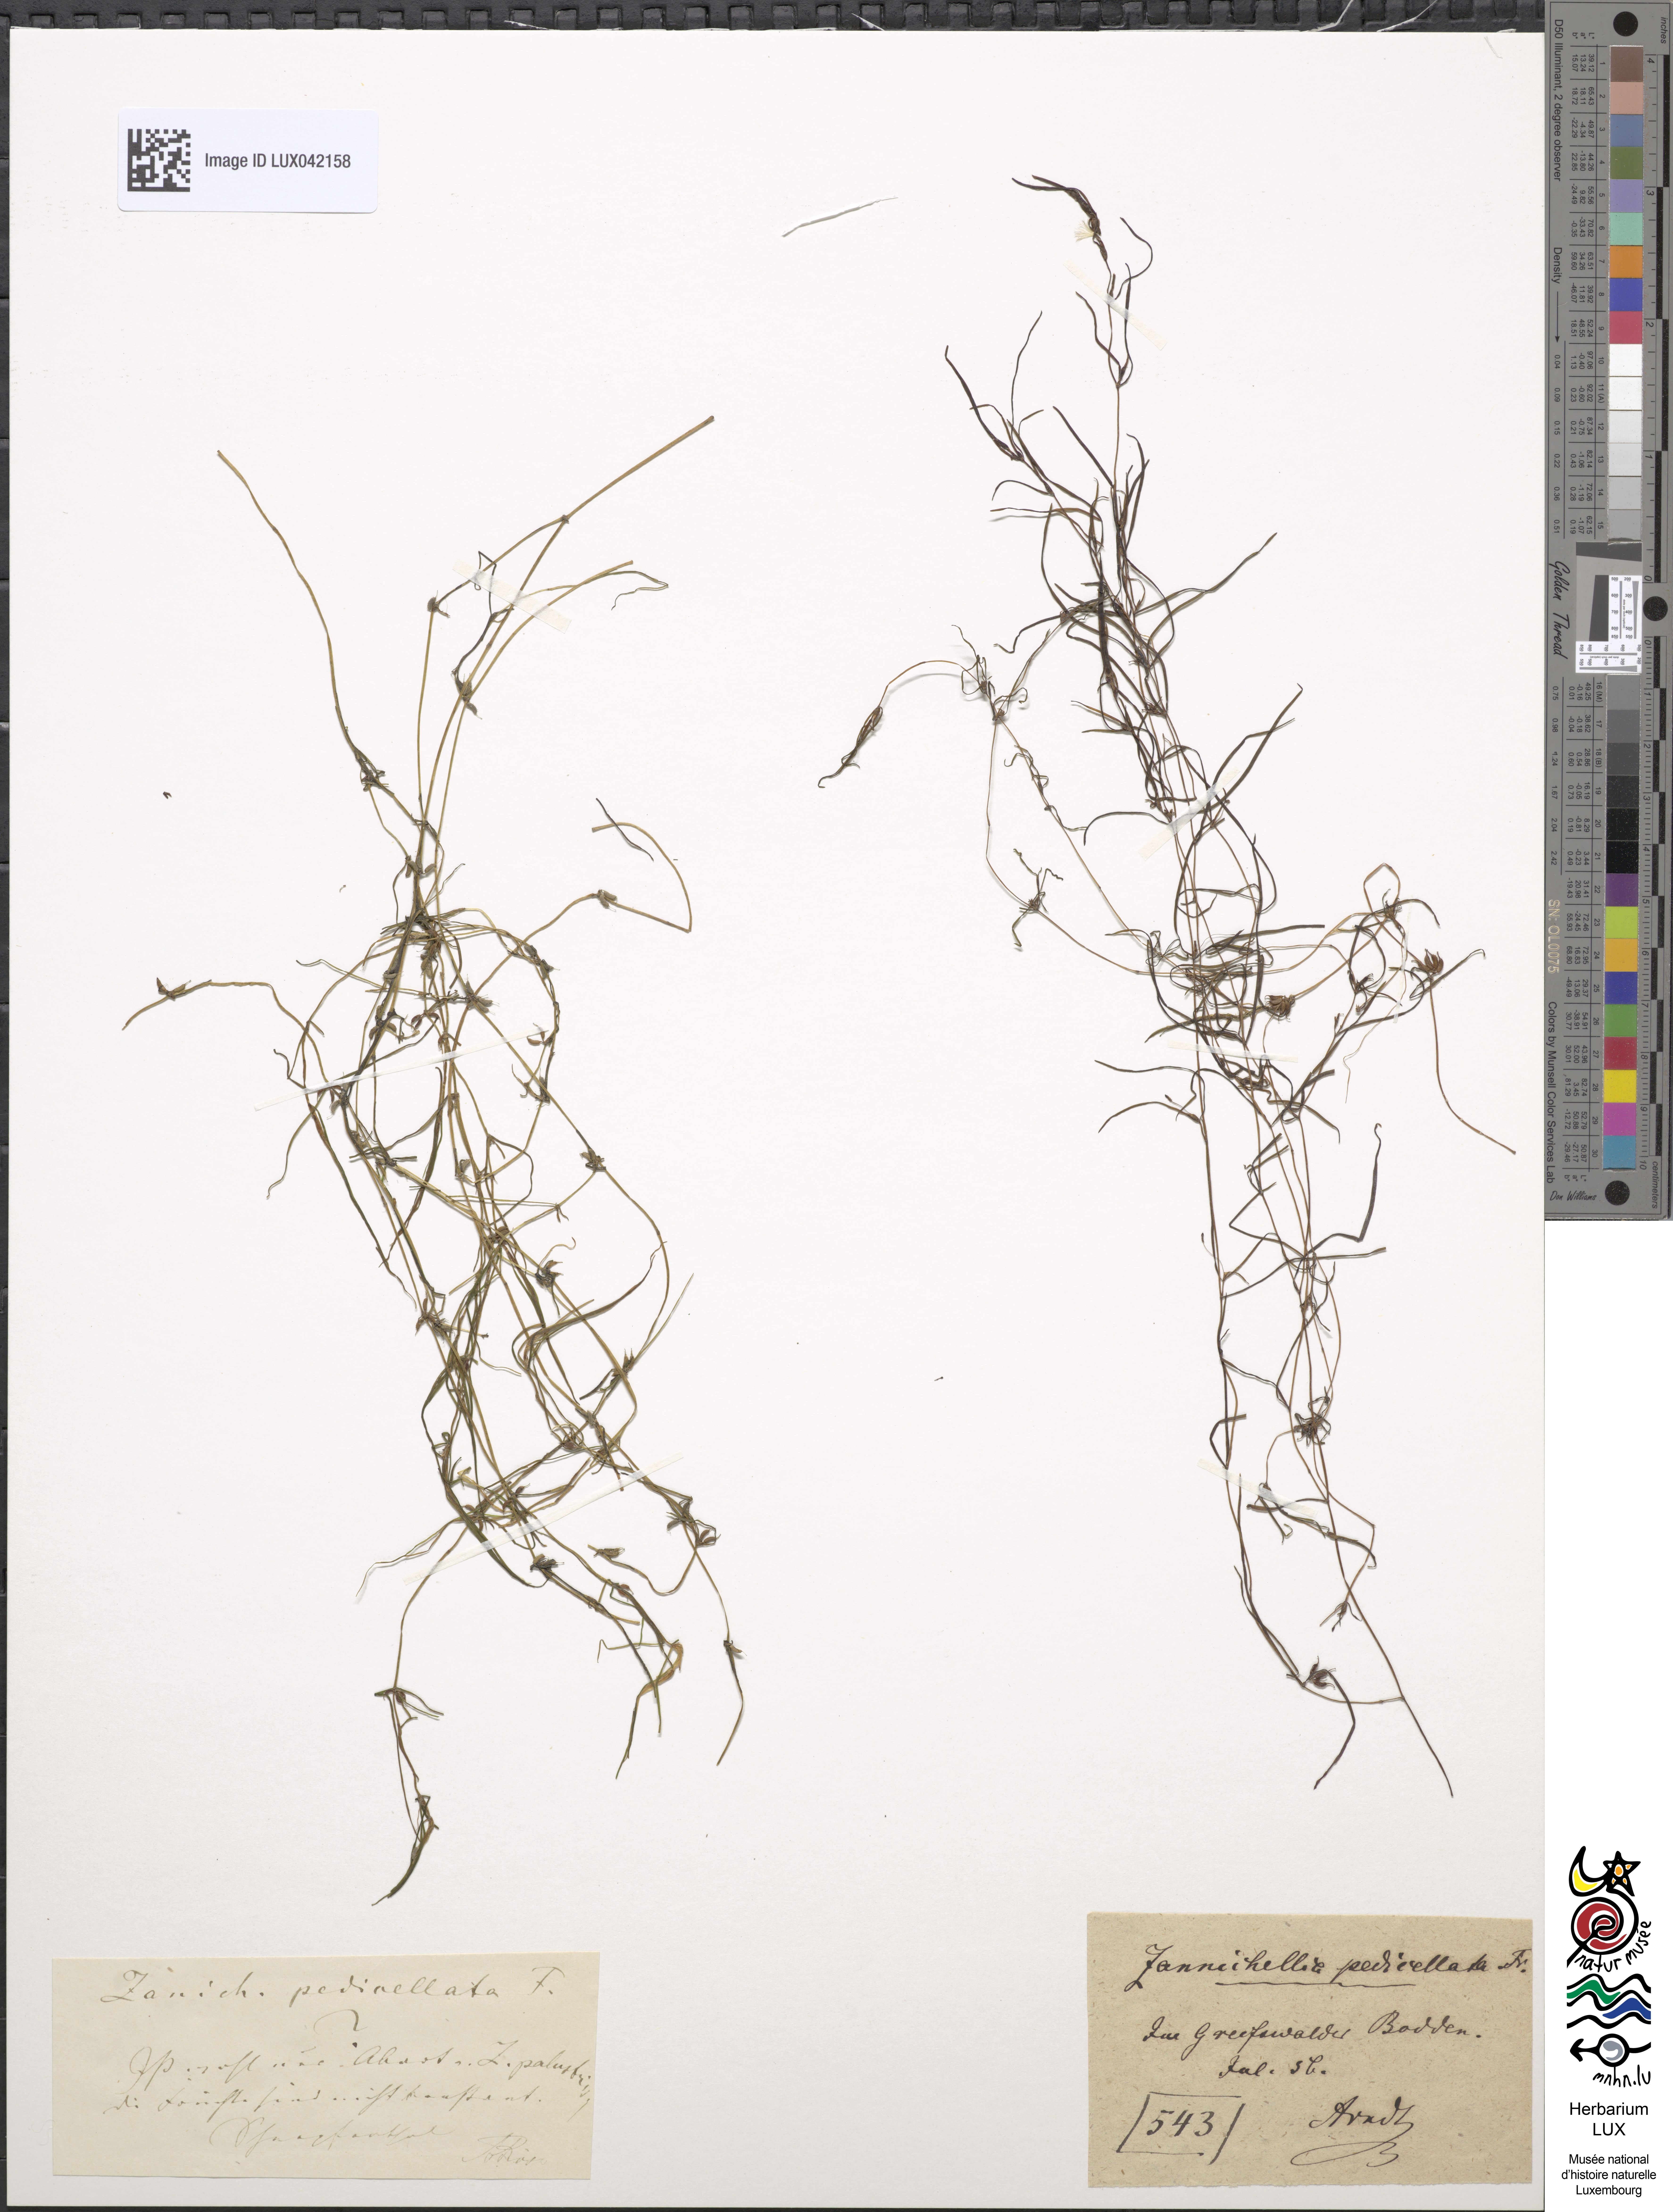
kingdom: Plantae
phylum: Tracheophyta
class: Liliopsida
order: Alismatales
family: Potamogetonaceae
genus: Zannichellia
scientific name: Zannichellia palustris
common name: Horned pondweed
